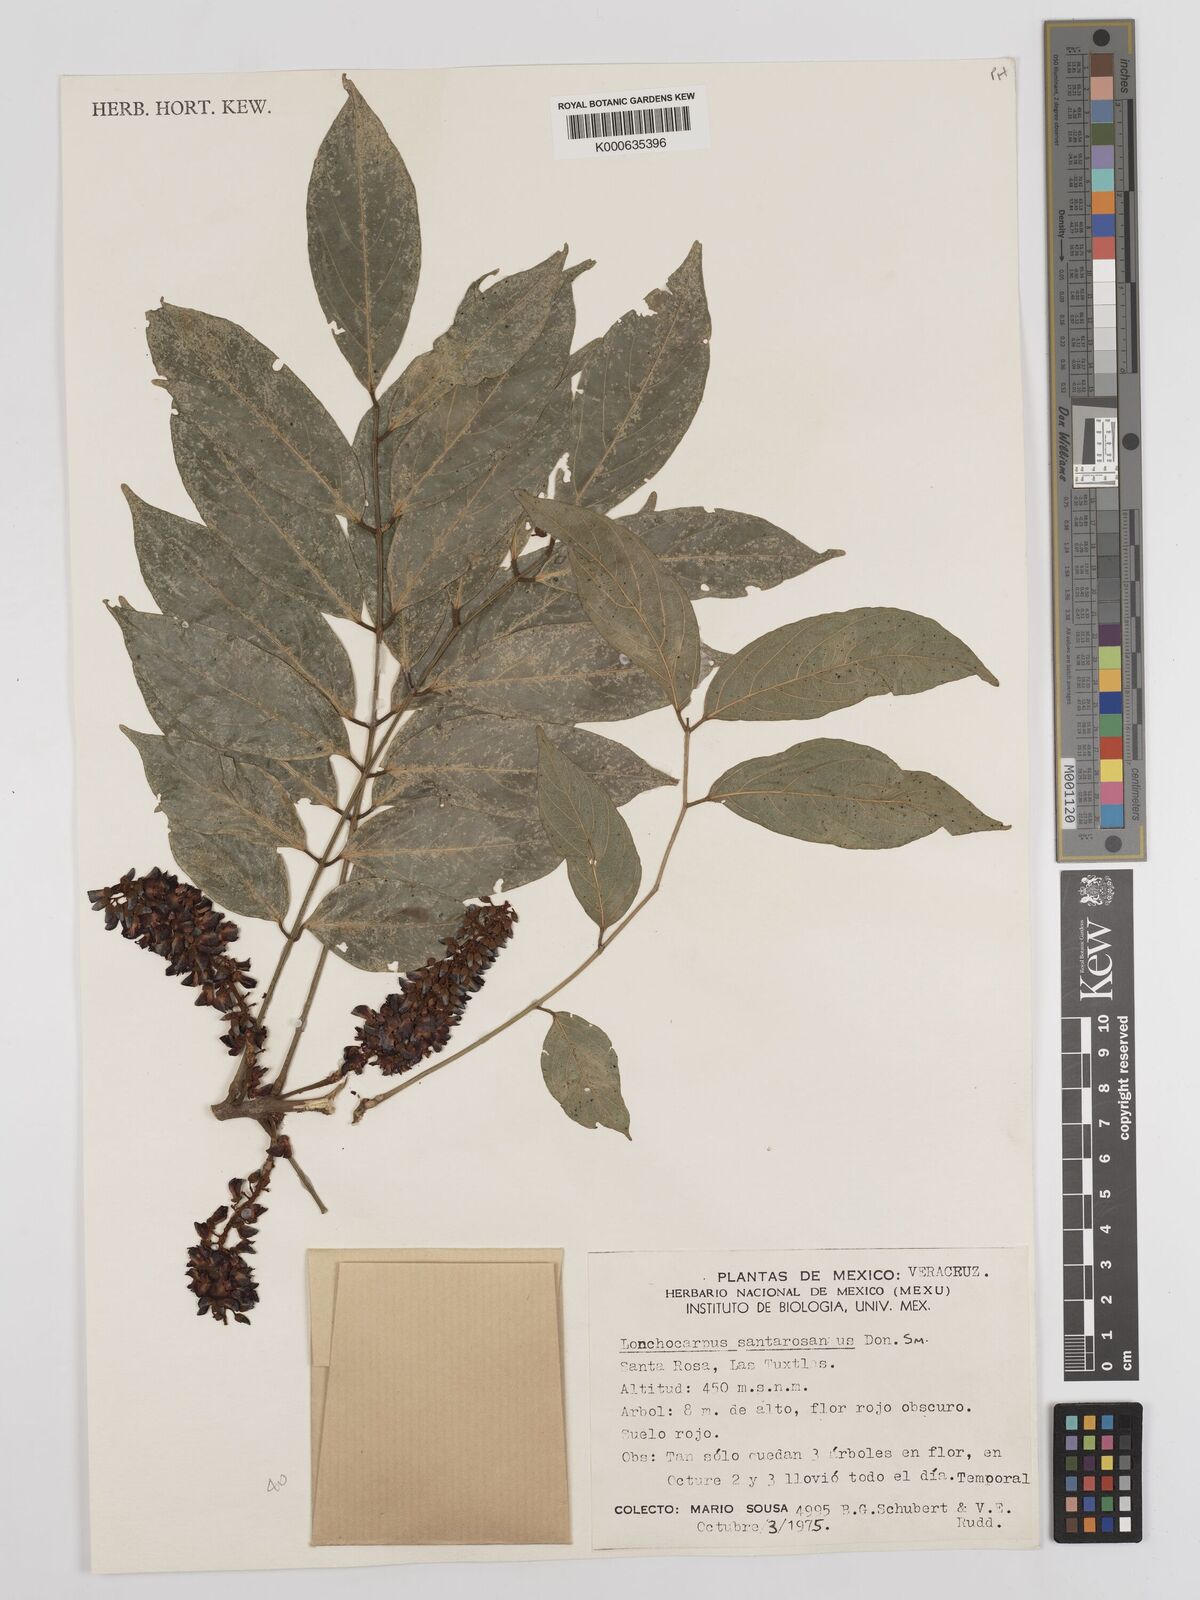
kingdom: Plantae
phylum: Tracheophyta
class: Magnoliopsida
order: Fabales
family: Fabaceae
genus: Lonchocarpus
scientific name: Lonchocarpus santarosanus
